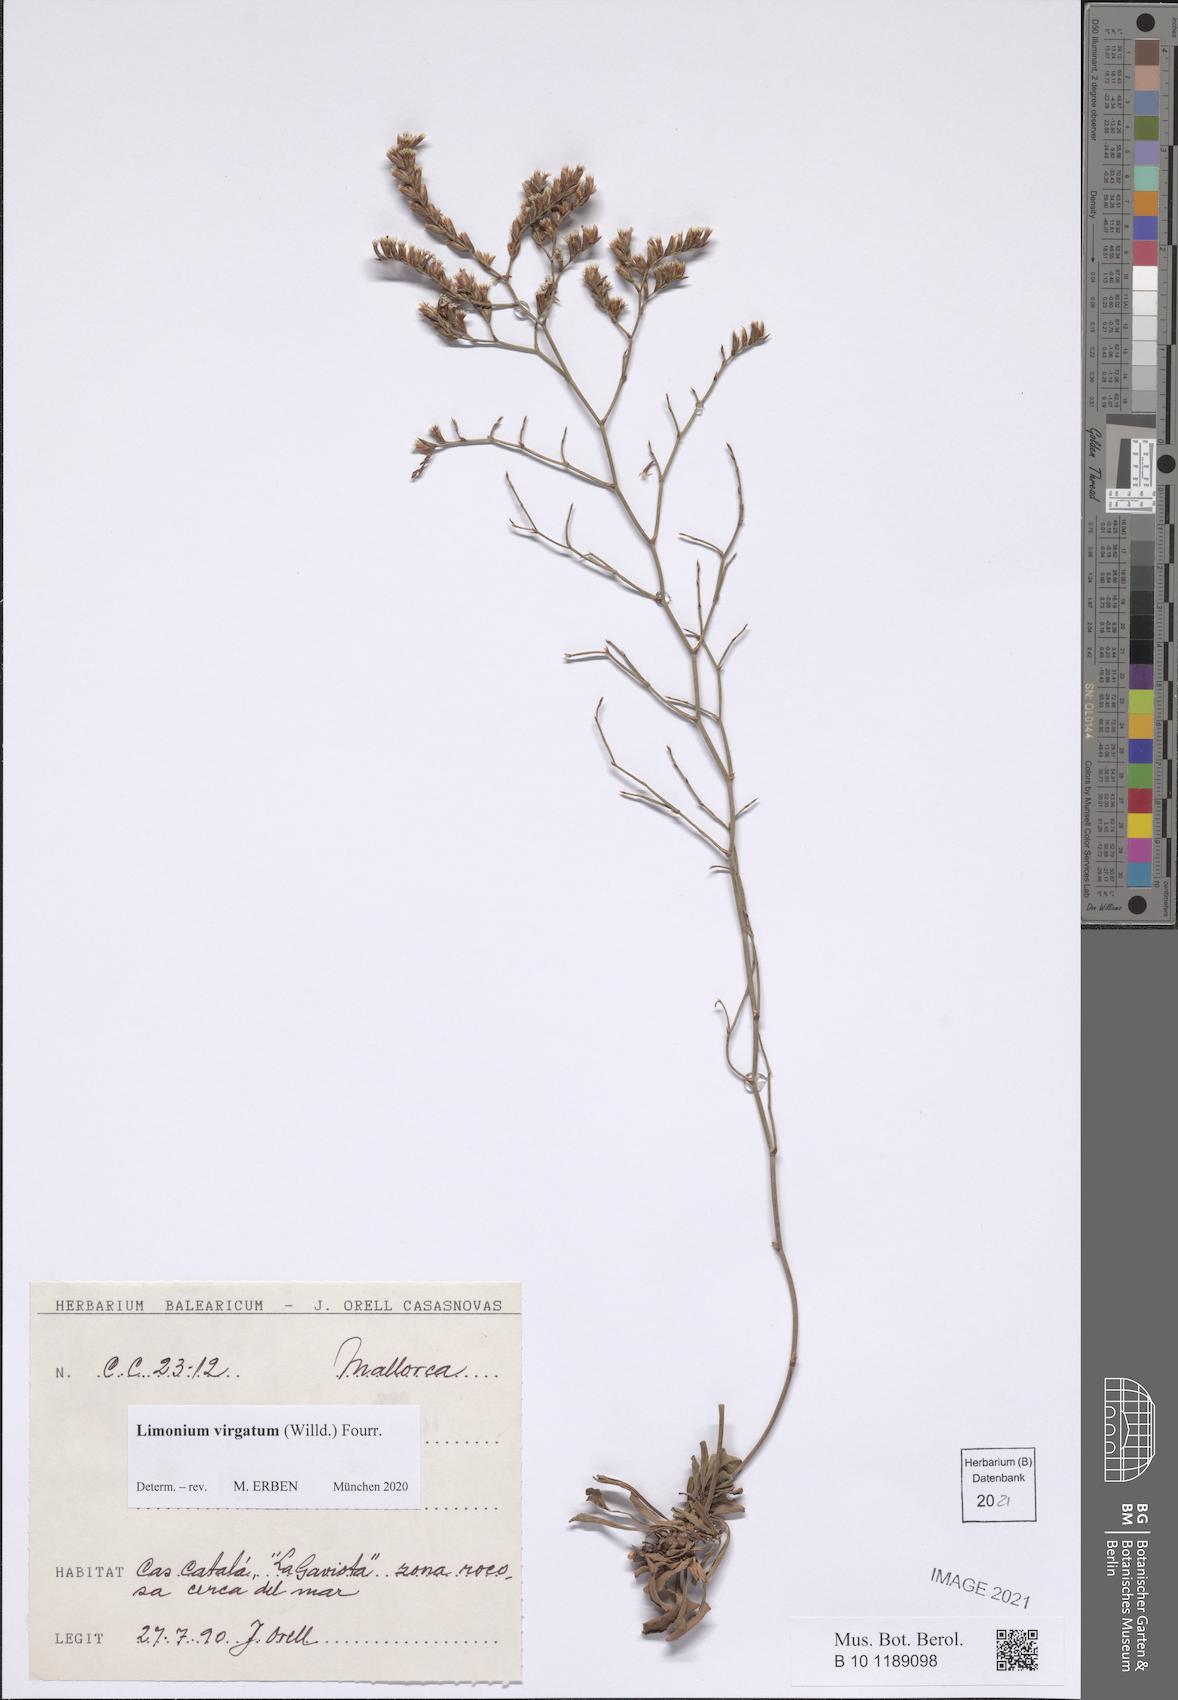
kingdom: Plantae
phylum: Tracheophyta
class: Magnoliopsida
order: Caryophyllales
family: Plumbaginaceae
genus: Limonium
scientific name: Limonium virgatum
